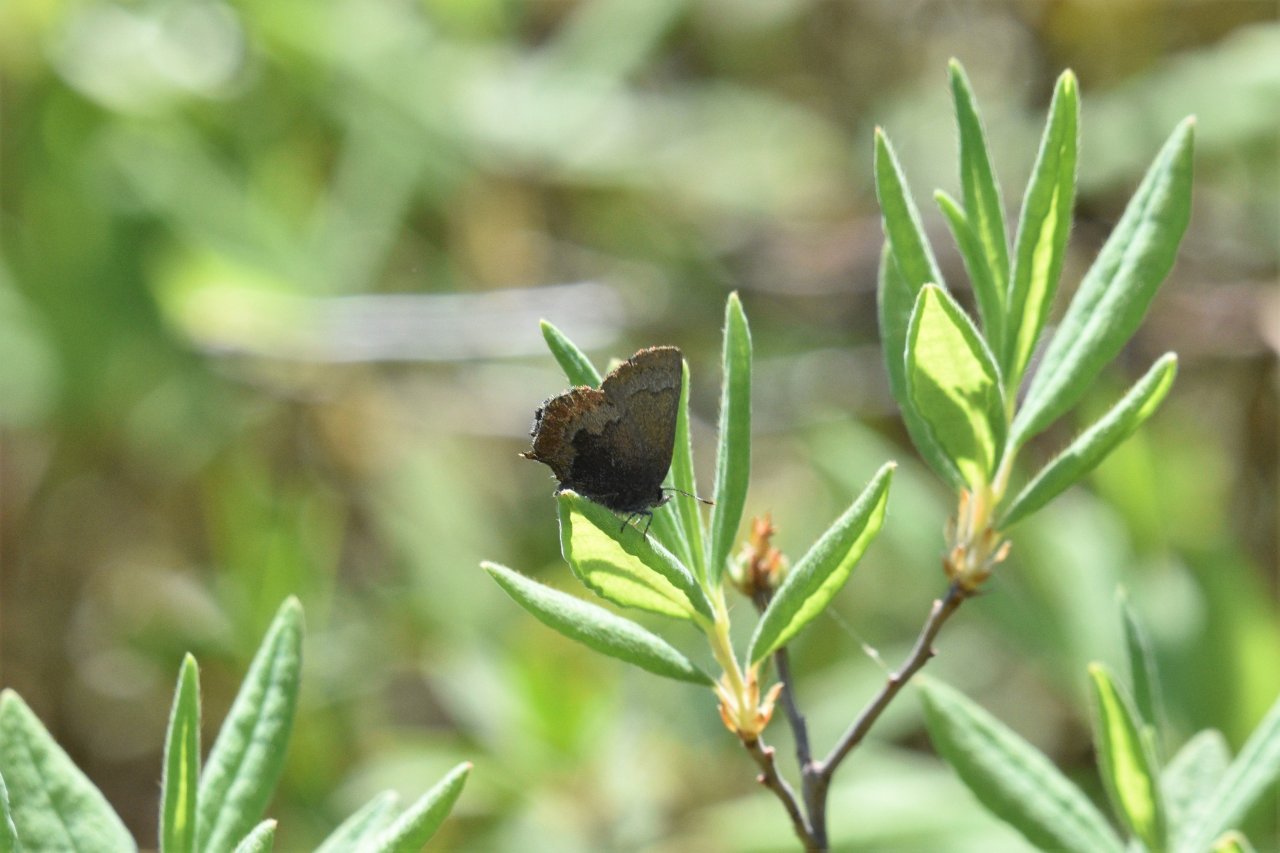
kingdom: Animalia
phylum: Arthropoda
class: Insecta
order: Lepidoptera
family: Lycaenidae
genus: Incisalia
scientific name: Incisalia irioides
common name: Brown Elfin
